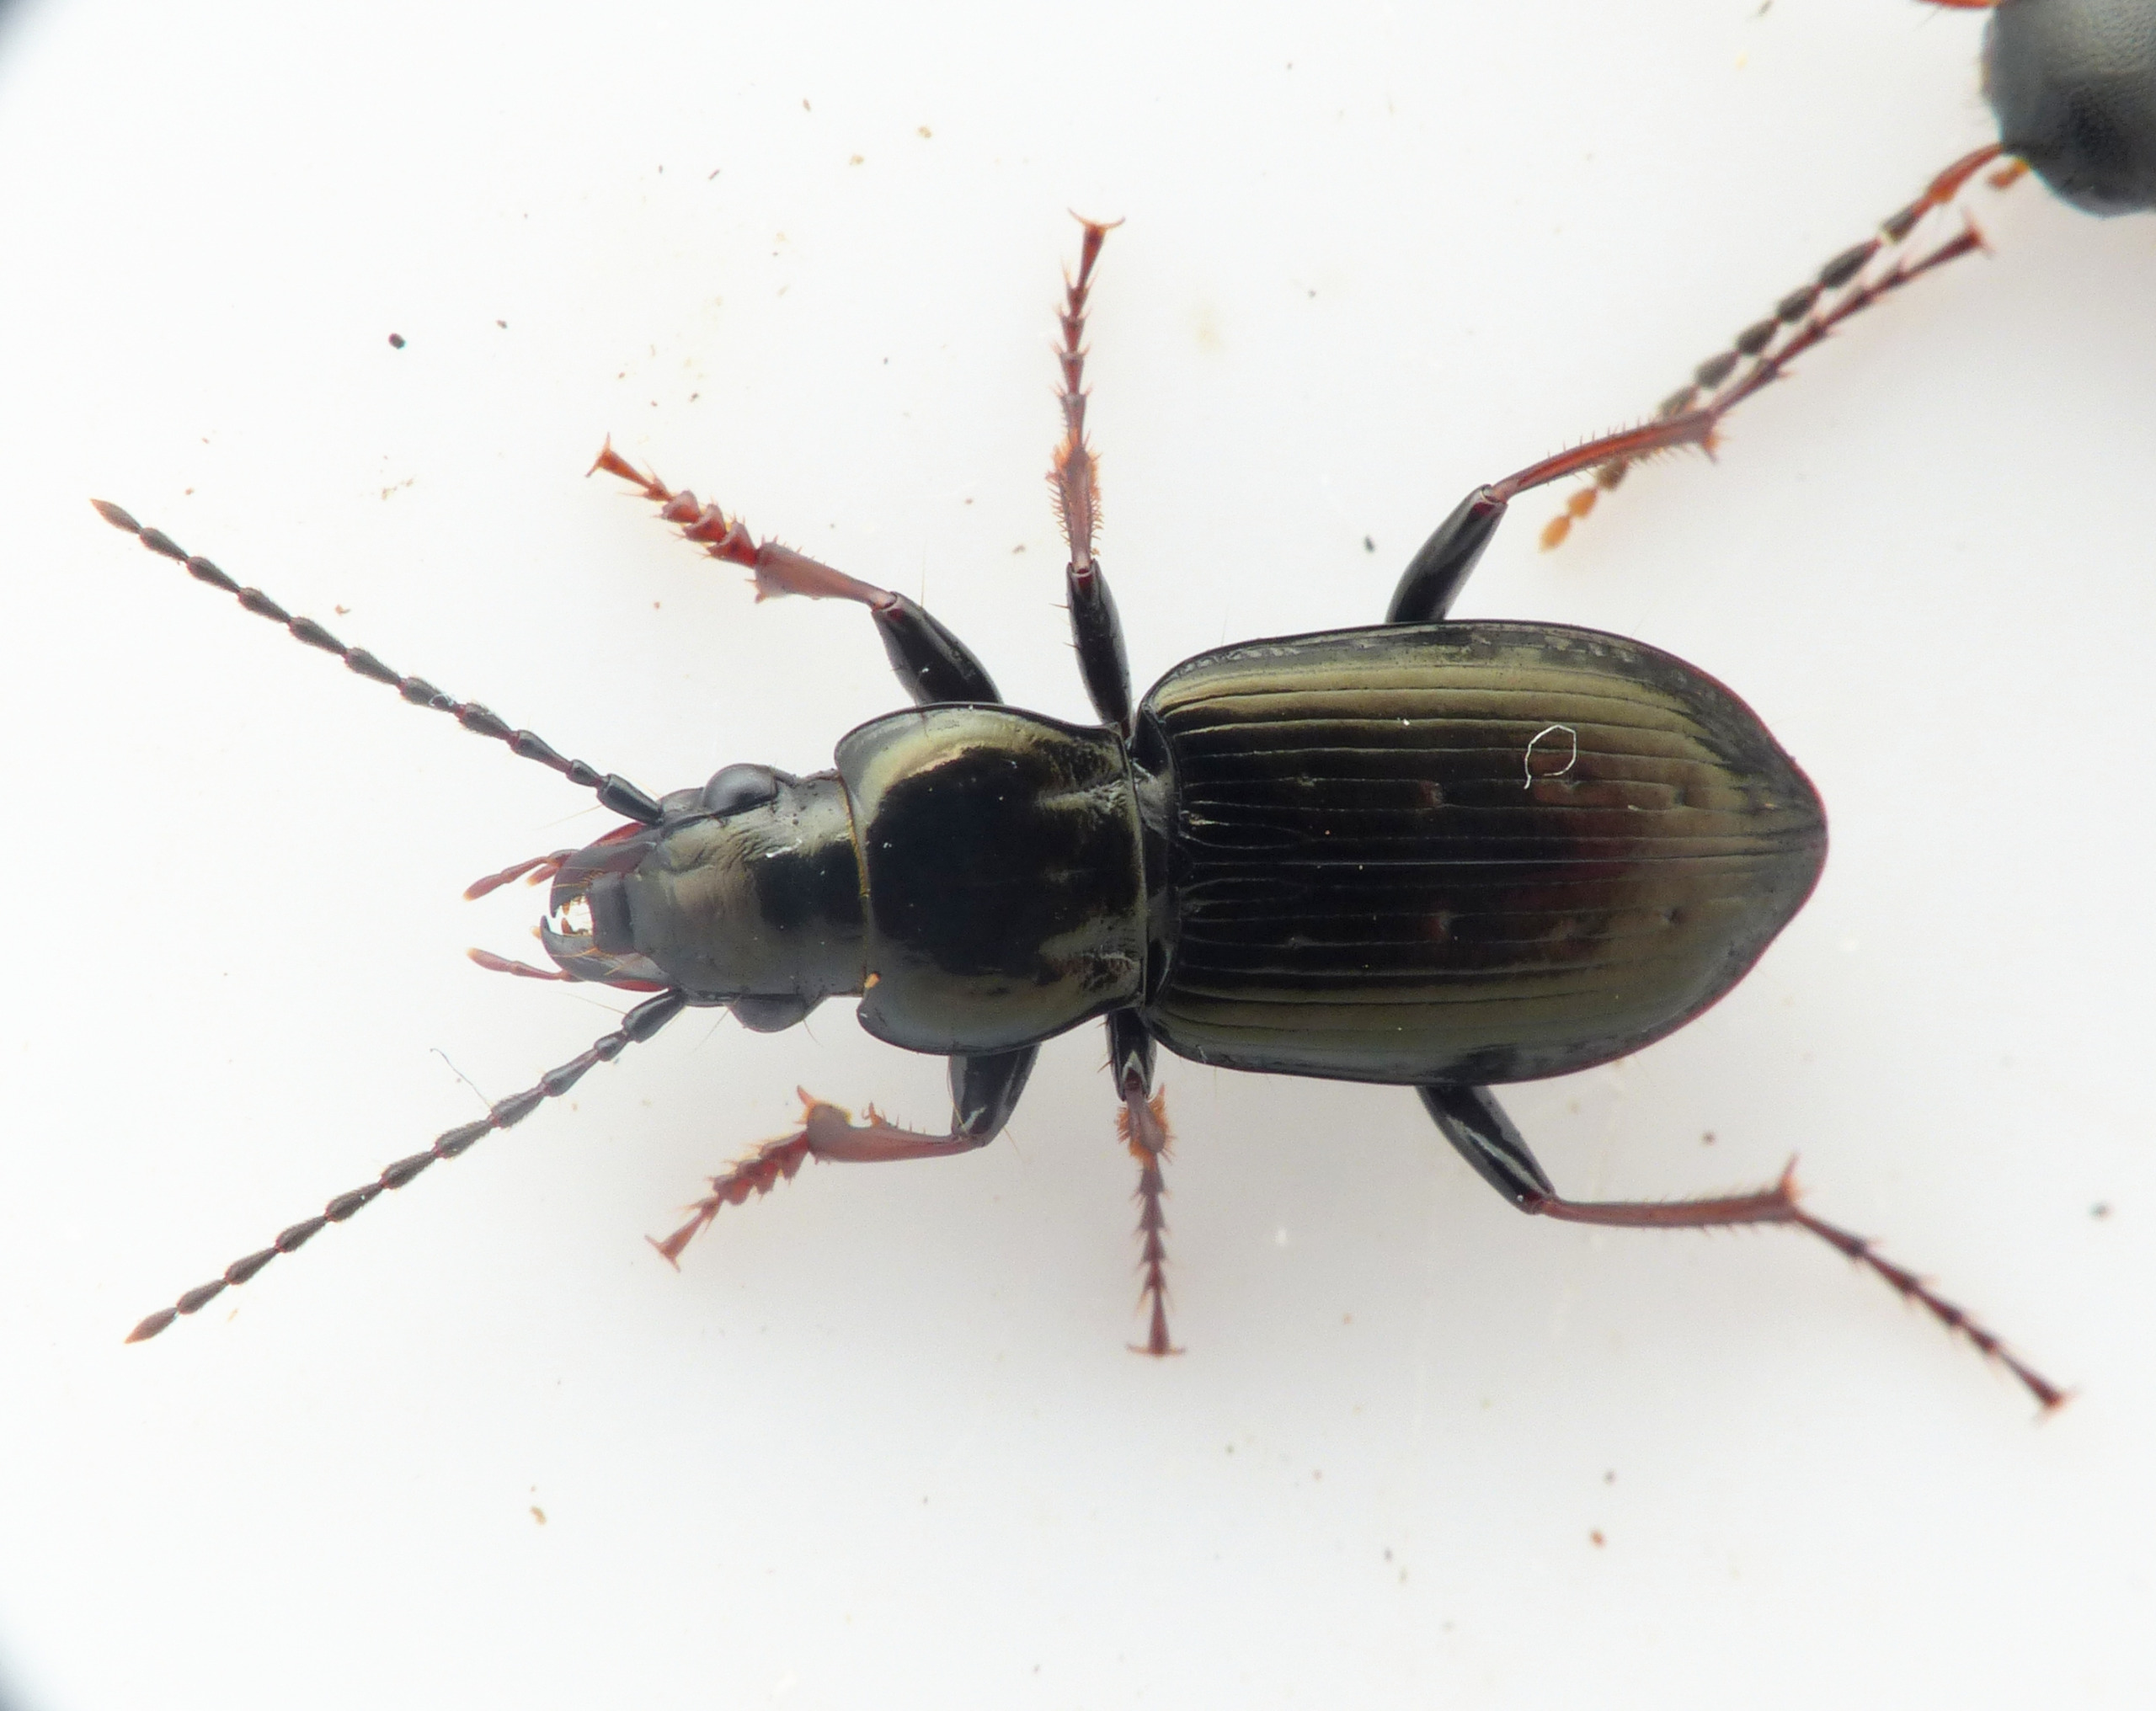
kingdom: Animalia
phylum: Arthropoda
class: Insecta
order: Coleoptera
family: Carabidae
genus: Pterostichus
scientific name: Pterostichus oblongopunctatus
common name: Bronzejordløber
